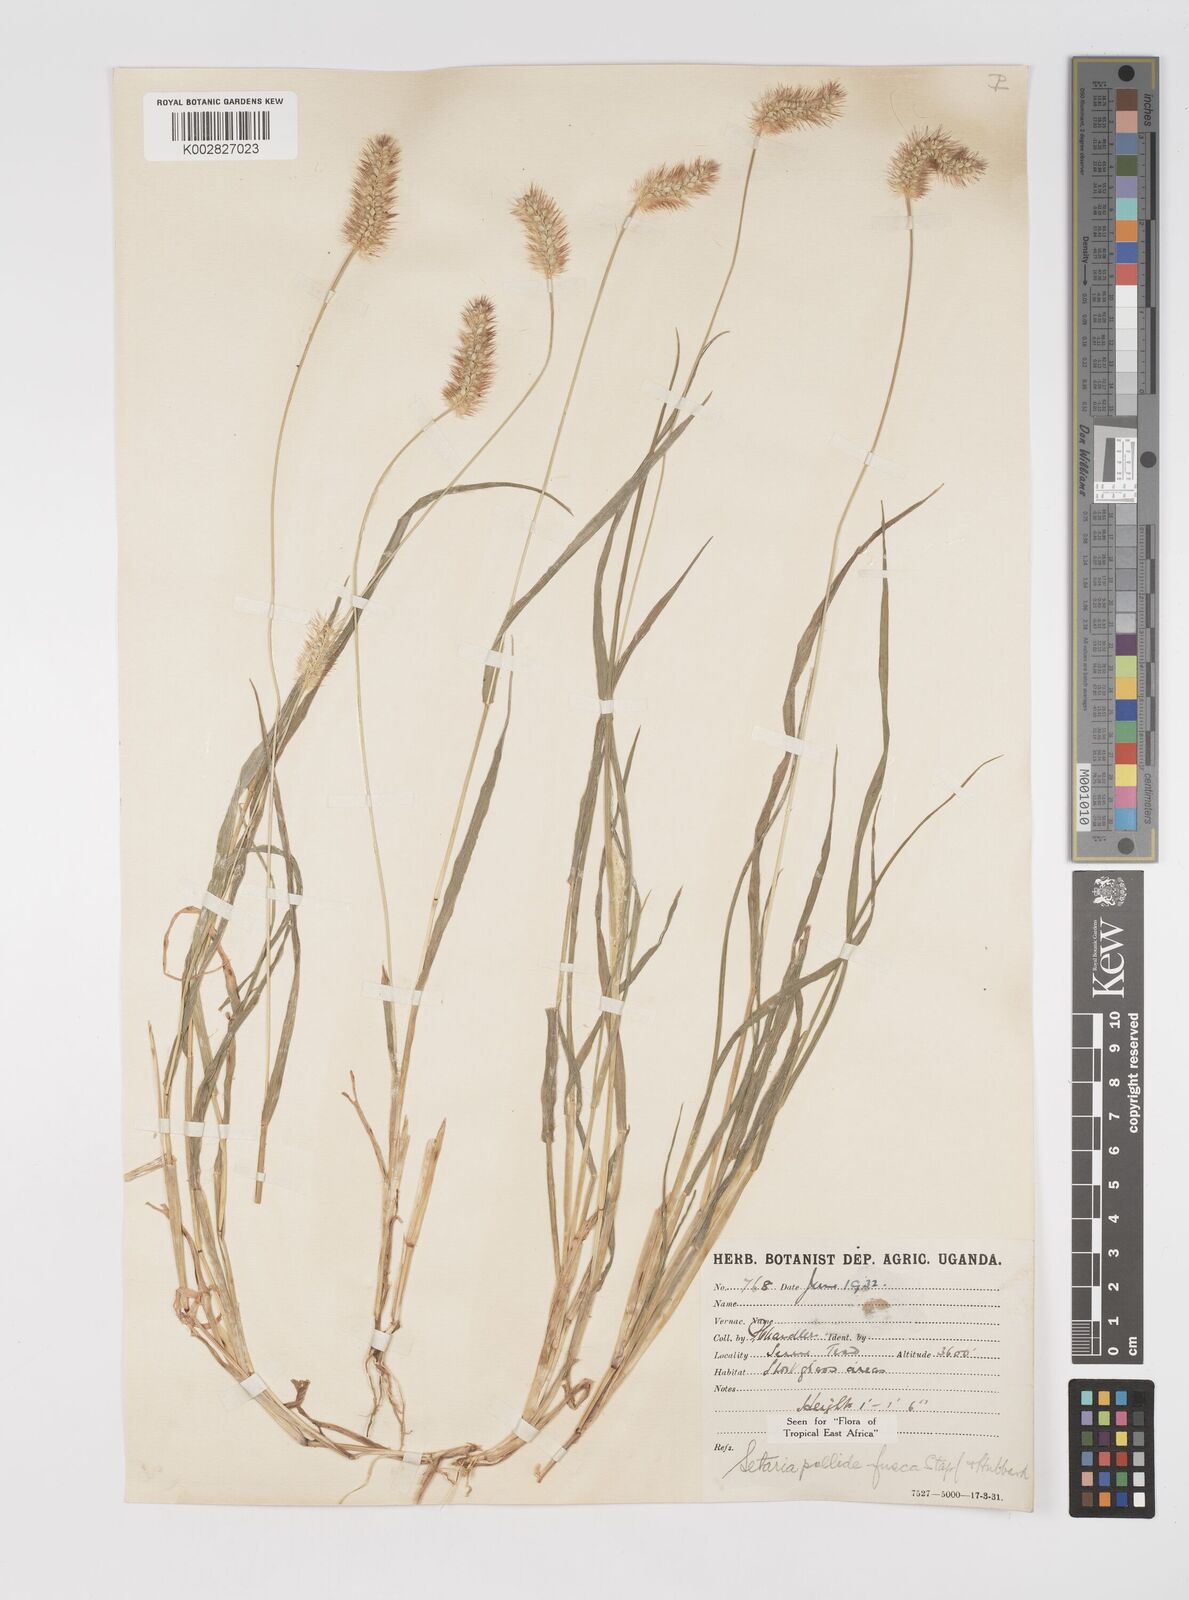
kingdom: Plantae
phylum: Tracheophyta
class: Liliopsida
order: Poales
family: Poaceae
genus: Setaria
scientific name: Setaria pumila
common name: Yellow bristle-grass
